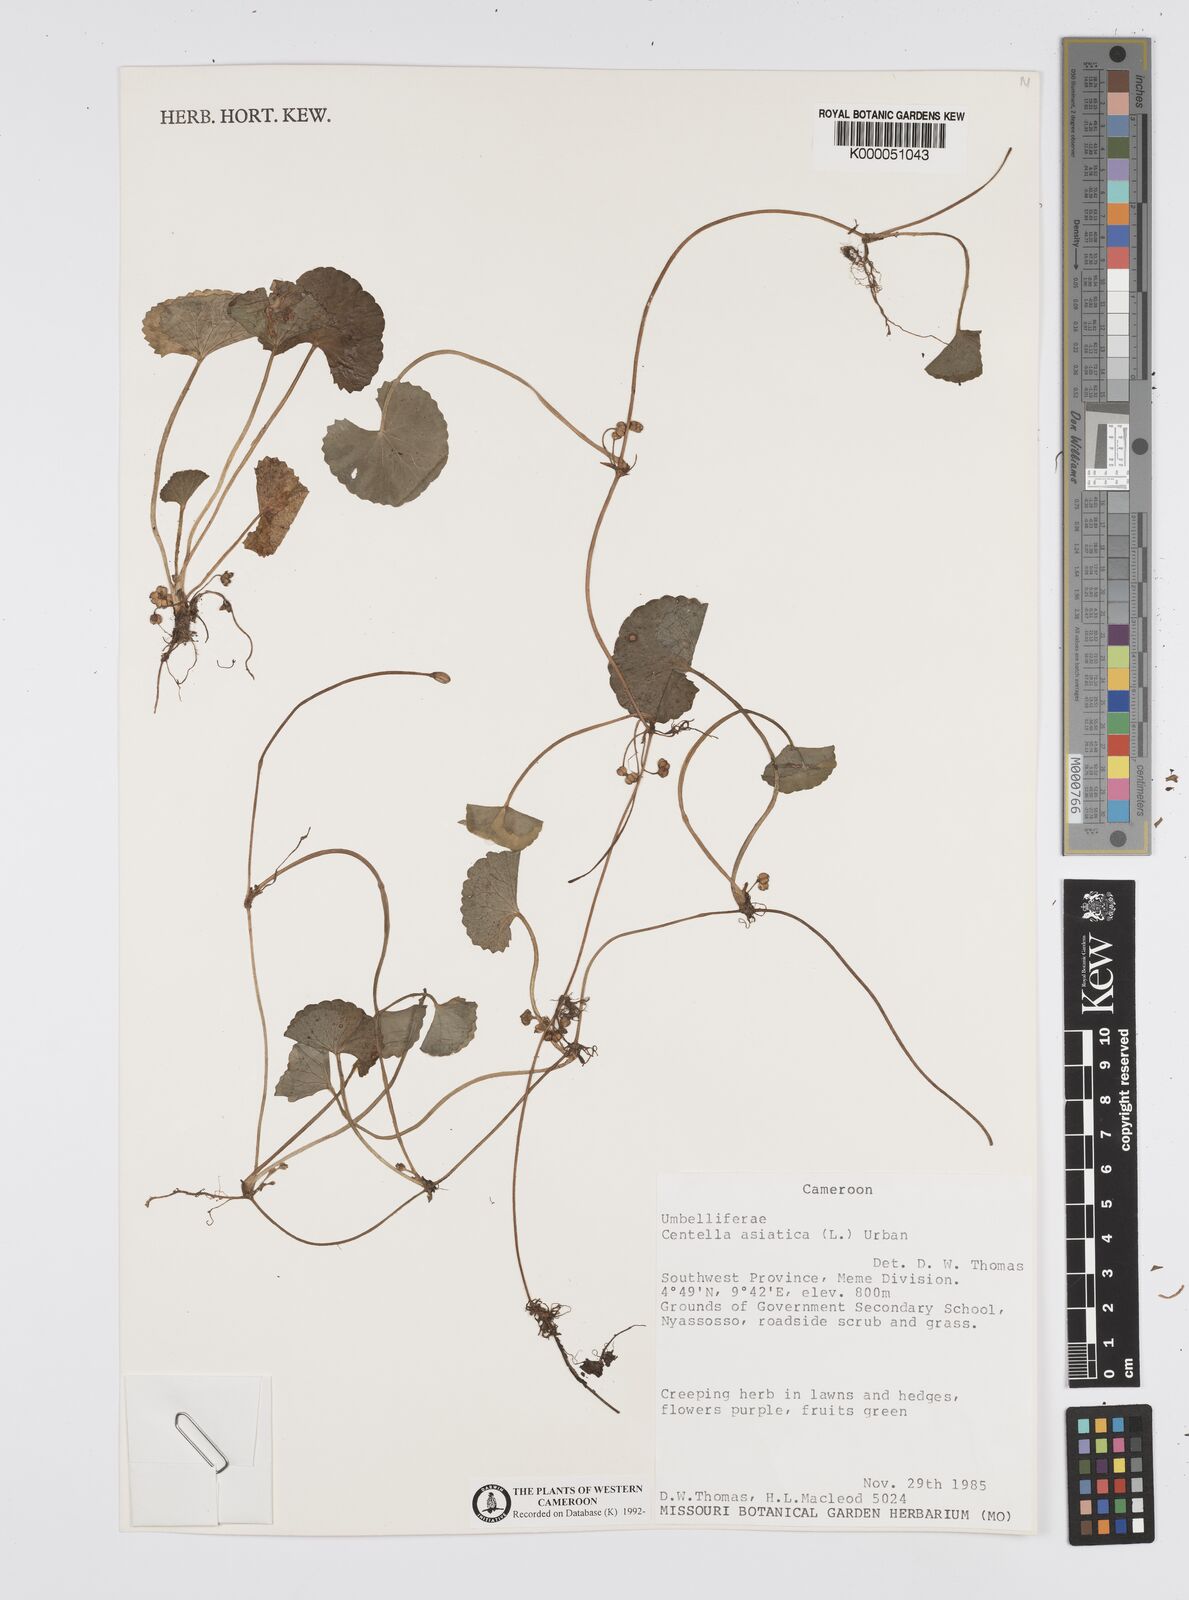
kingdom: Plantae
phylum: Tracheophyta
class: Magnoliopsida
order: Apiales
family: Apiaceae
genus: Centella
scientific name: Centella asiatica
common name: Spadeleaf
